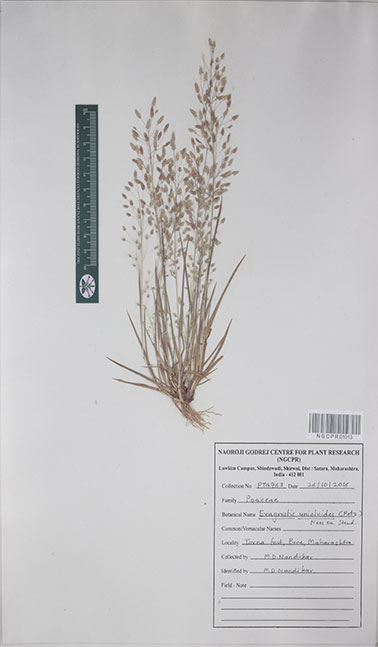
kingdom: Plantae
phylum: Tracheophyta
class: Liliopsida
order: Poales
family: Poaceae
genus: Eragrostis
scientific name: Eragrostis unioloides
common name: Chinese lovegrass
